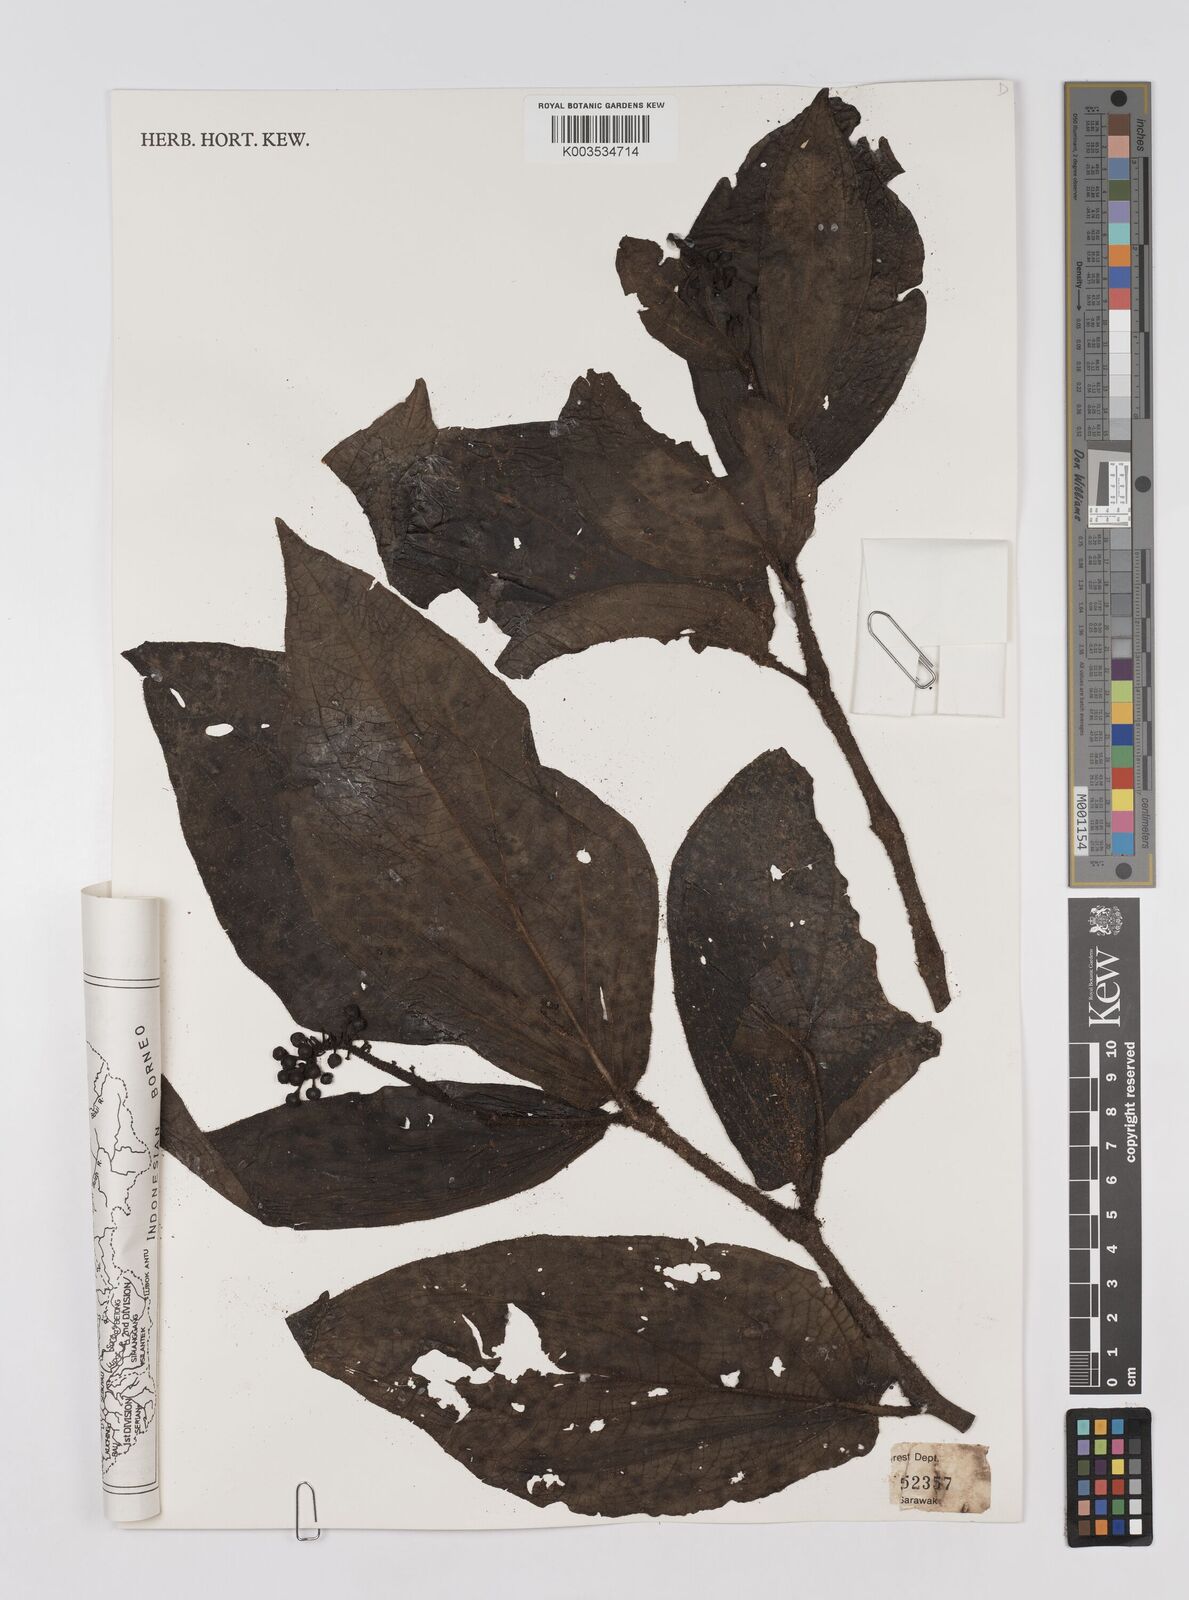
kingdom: Plantae
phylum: Tracheophyta
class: Magnoliopsida
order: Piperales
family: Piperaceae
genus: Piper
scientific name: Piper muricatum
